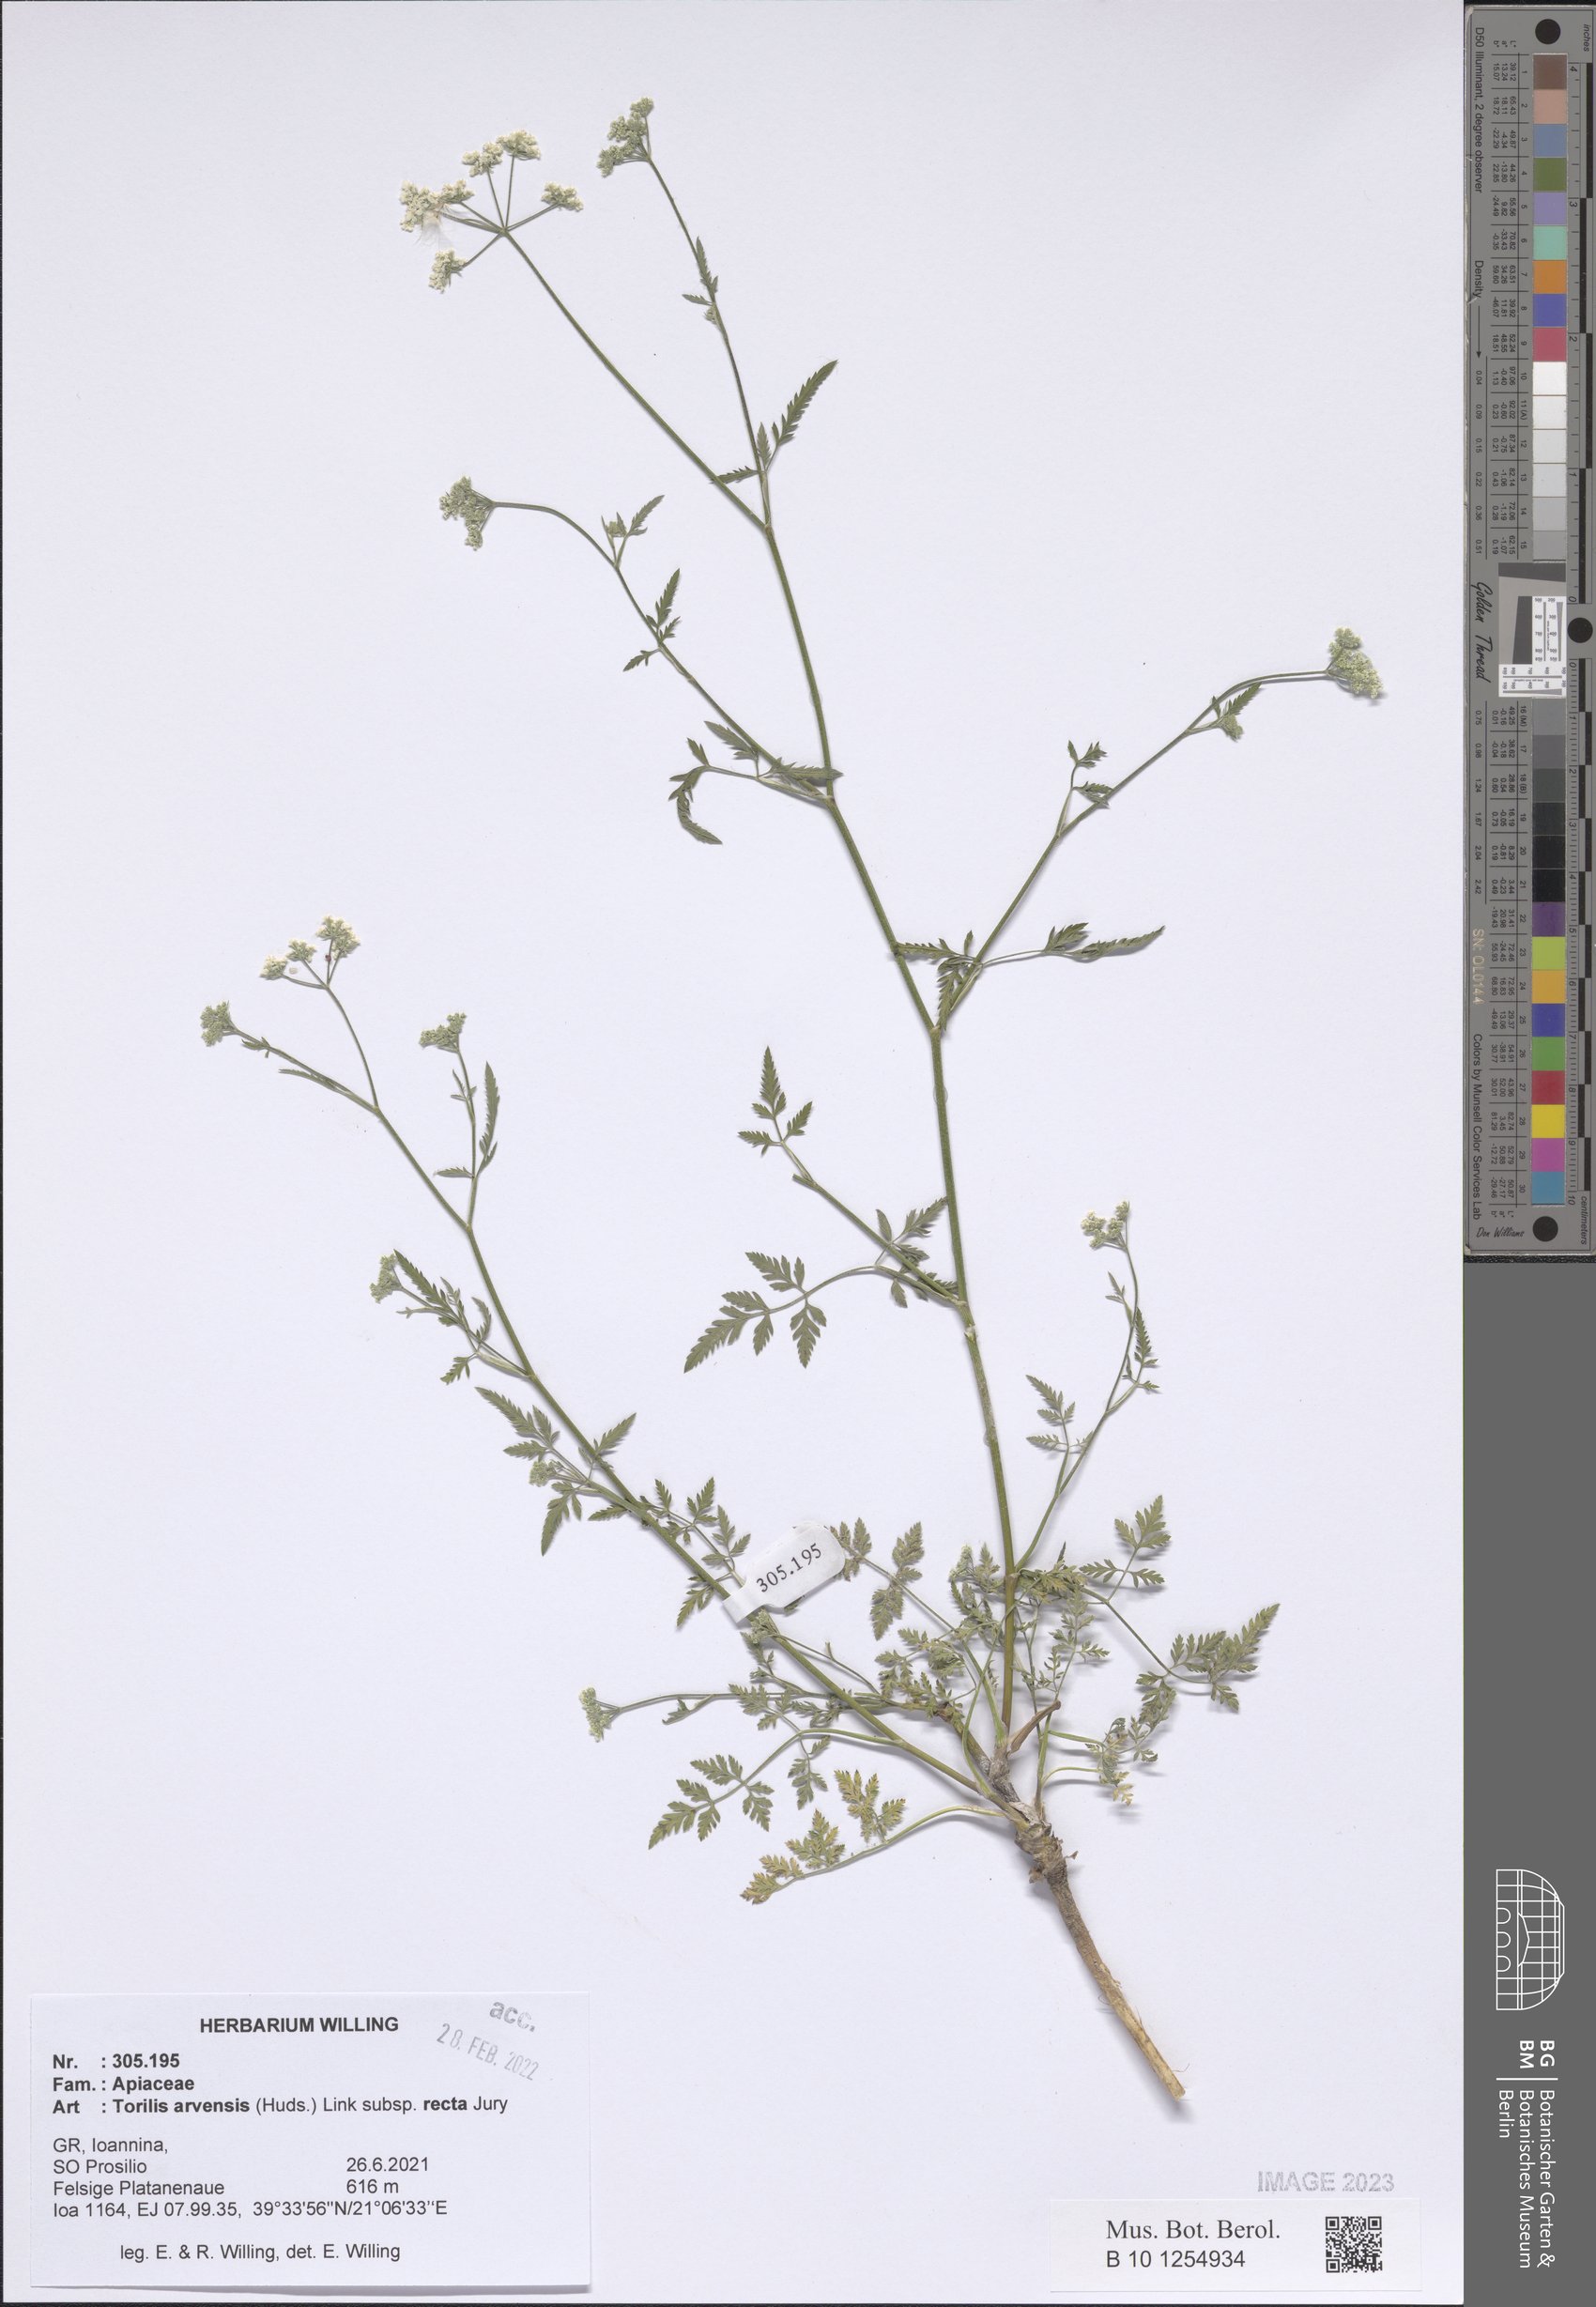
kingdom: Plantae
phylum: Tracheophyta
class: Magnoliopsida
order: Apiales
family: Apiaceae
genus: Torilis
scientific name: Torilis arvensis
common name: Spreading hedge-parsley
